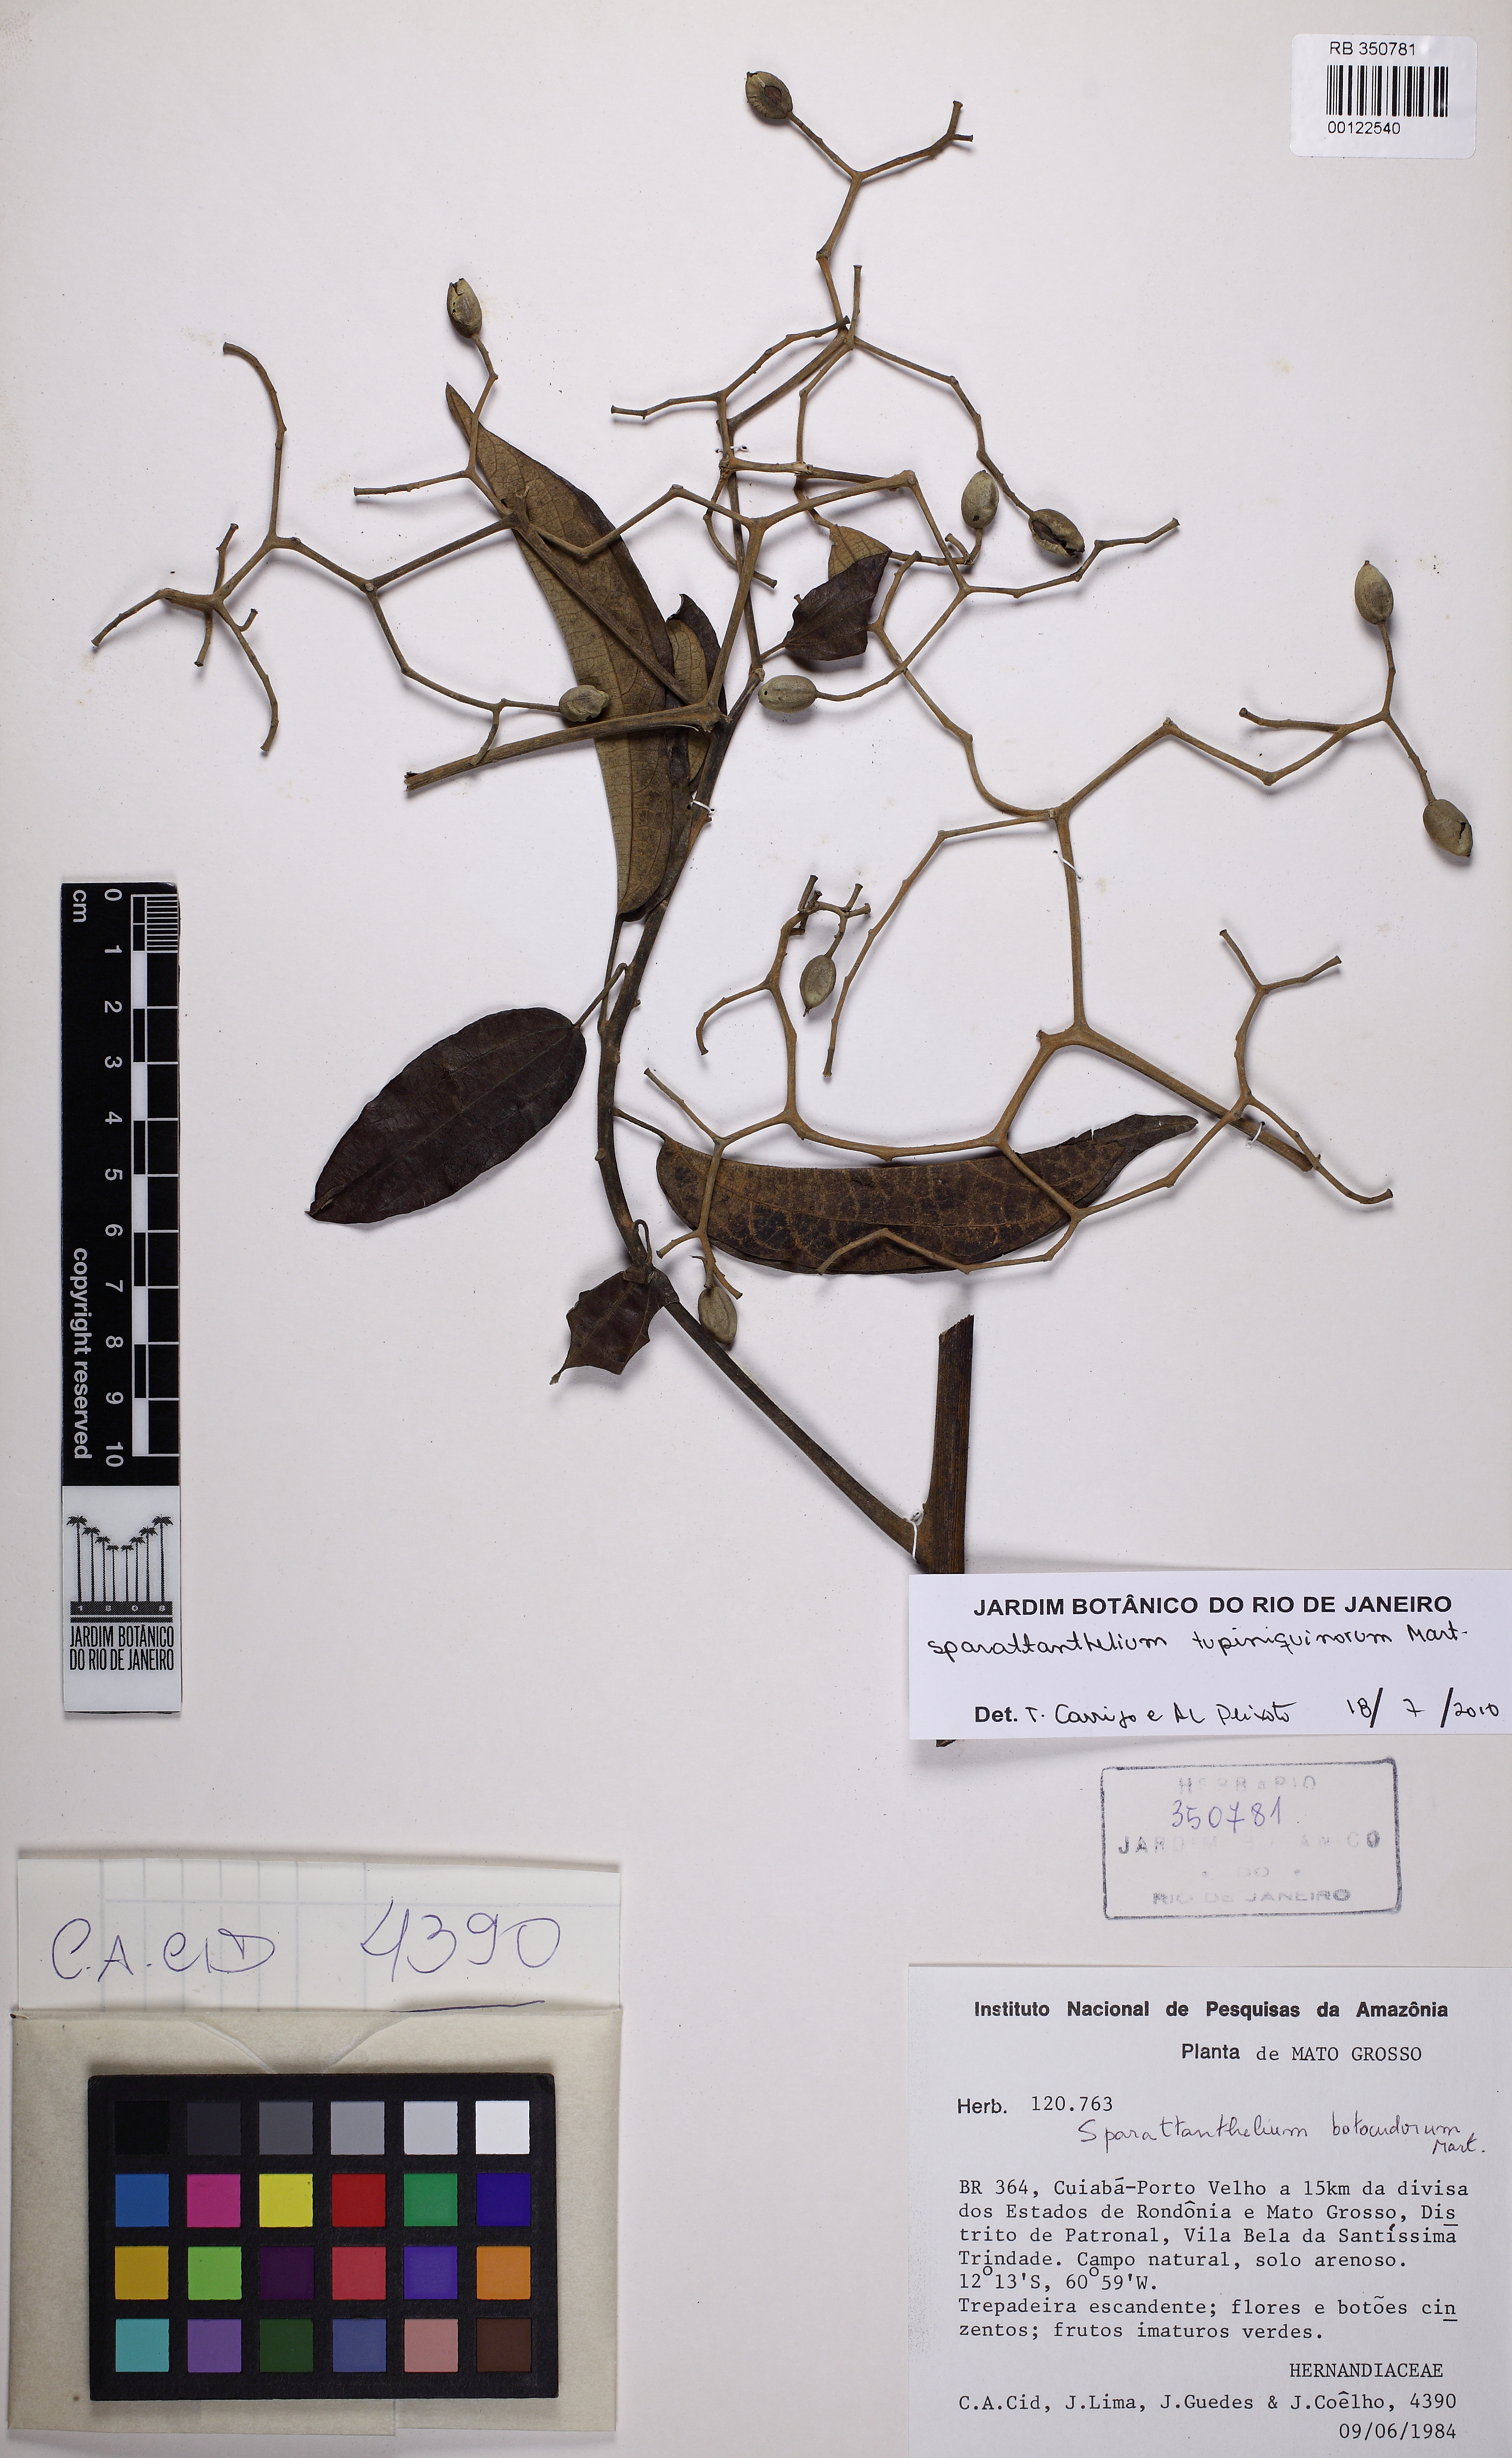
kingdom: Plantae
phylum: Tracheophyta
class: Magnoliopsida
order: Laurales
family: Hernandiaceae
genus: Sparattanthelium
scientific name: Sparattanthelium tupiniquinorum
